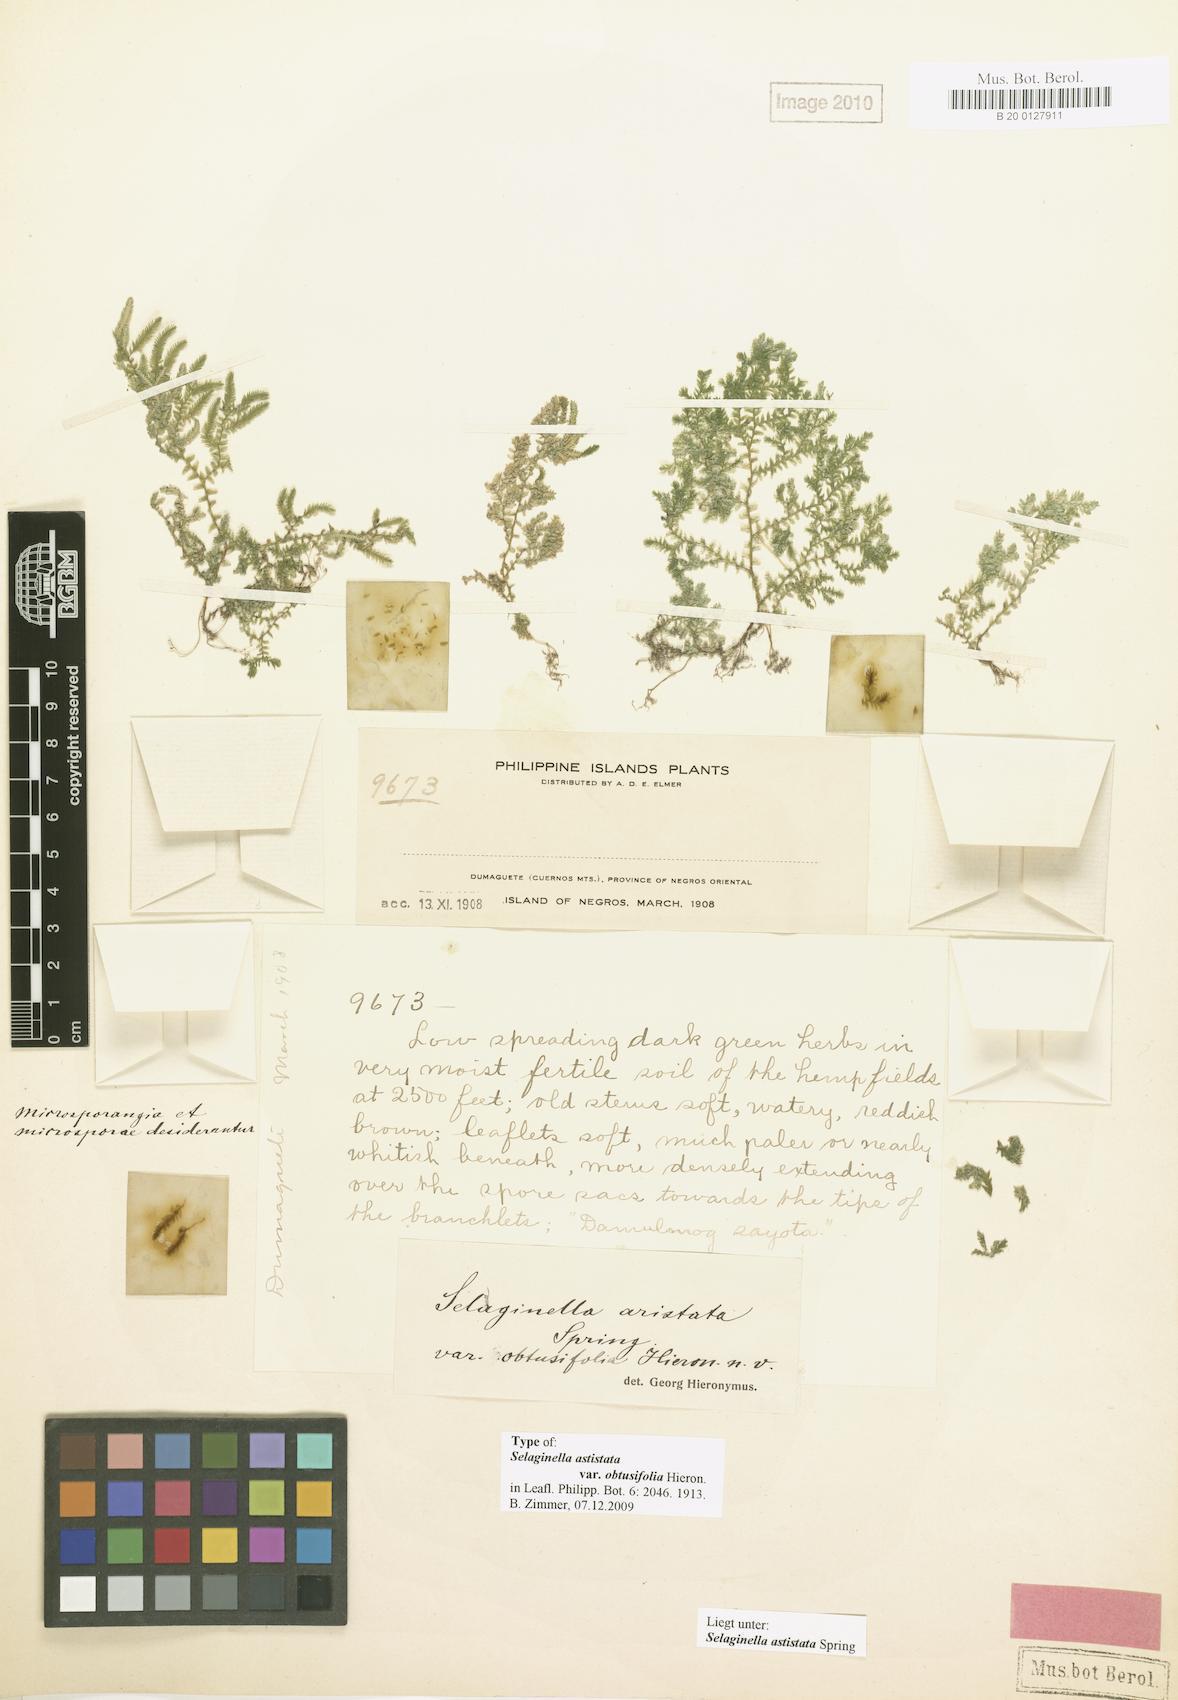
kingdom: Plantae
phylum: Tracheophyta
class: Lycopodiopsida
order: Selaginellales
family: Selaginellaceae
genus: Selaginella
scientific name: Selaginella aristata
